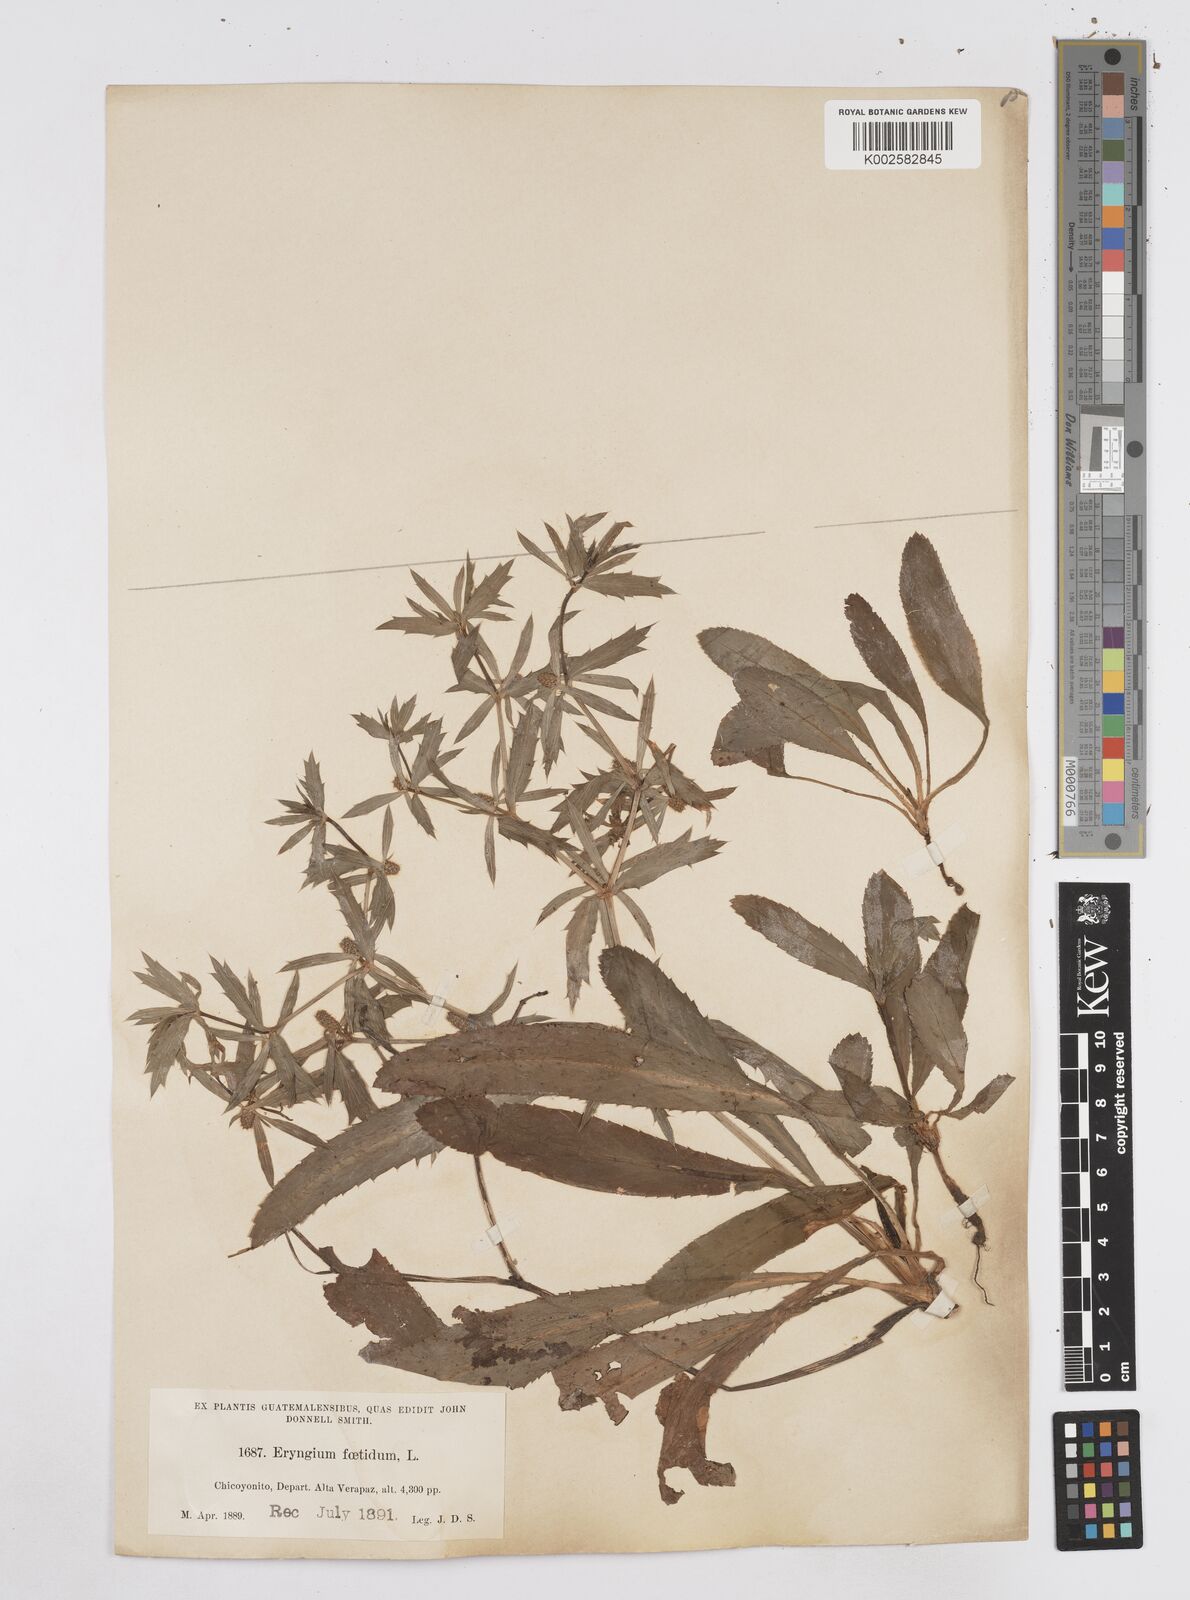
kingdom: Plantae
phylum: Tracheophyta
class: Magnoliopsida
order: Apiales
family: Apiaceae
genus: Eryngium
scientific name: Eryngium foetidum
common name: Fitweed
